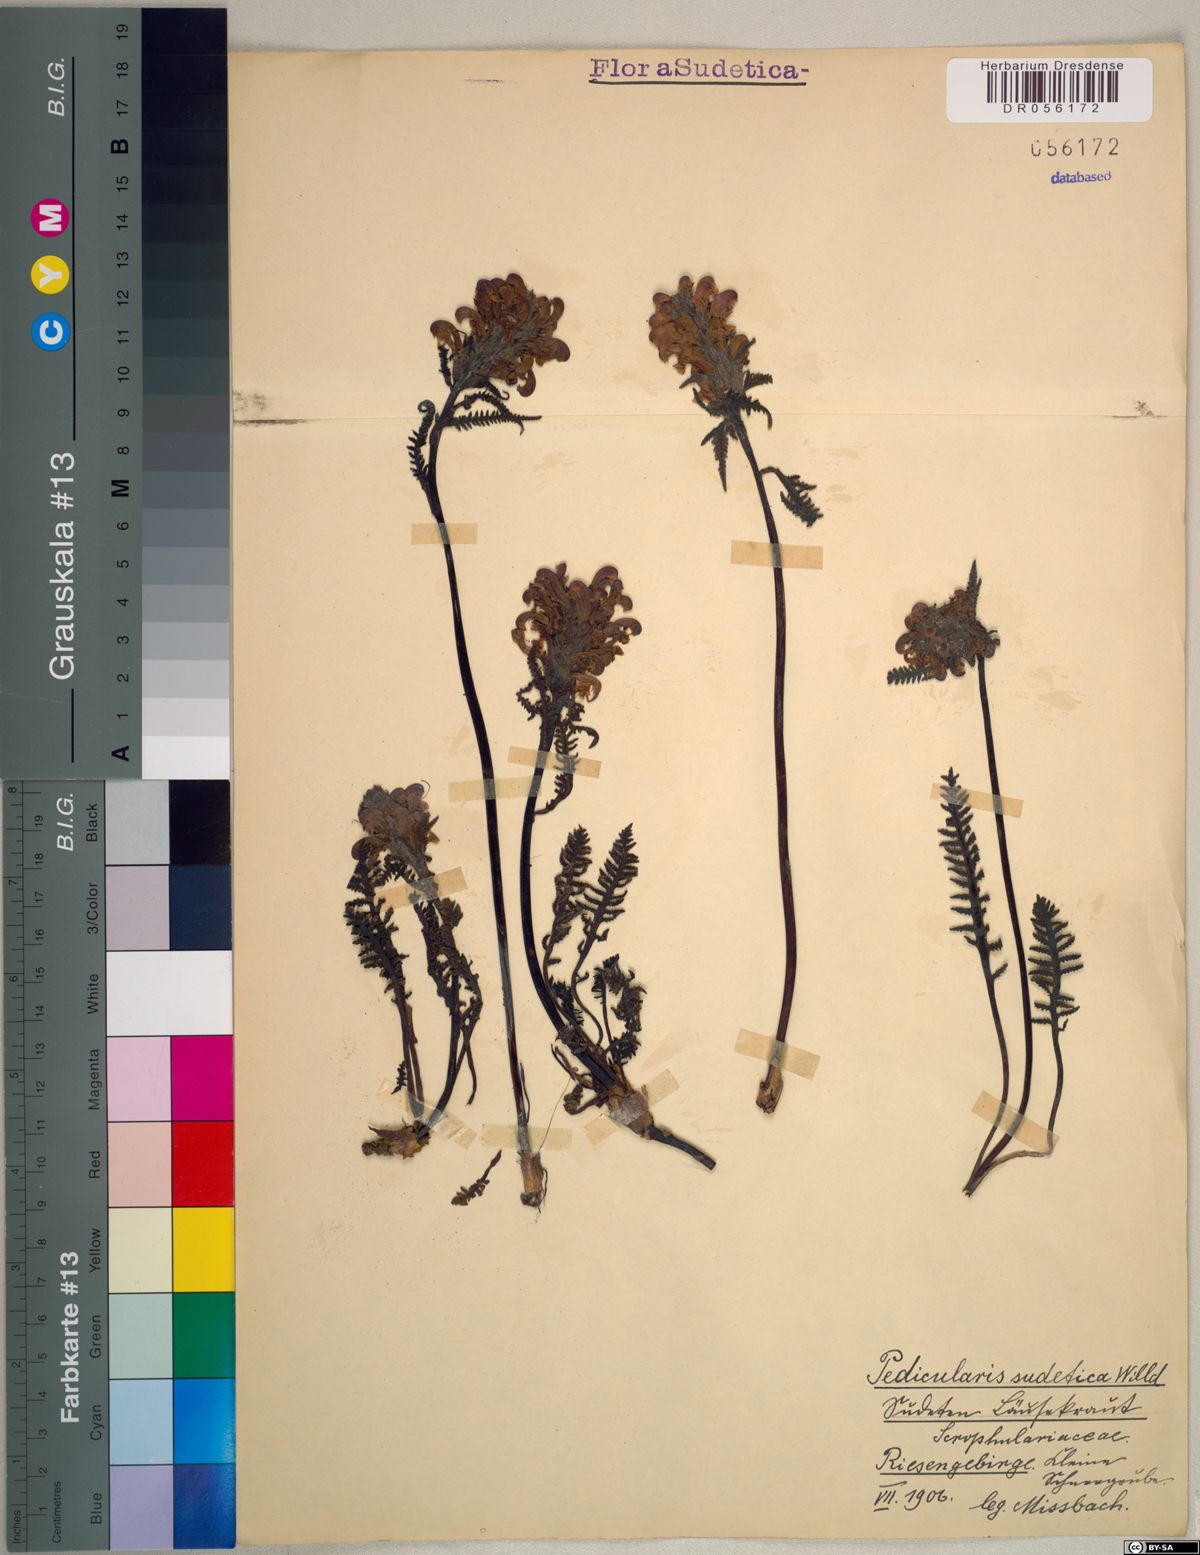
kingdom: Plantae
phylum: Tracheophyta
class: Magnoliopsida
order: Lamiales
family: Orobanchaceae
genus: Pedicularis
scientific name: Pedicularis sudetica
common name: Sudeten lousewort
